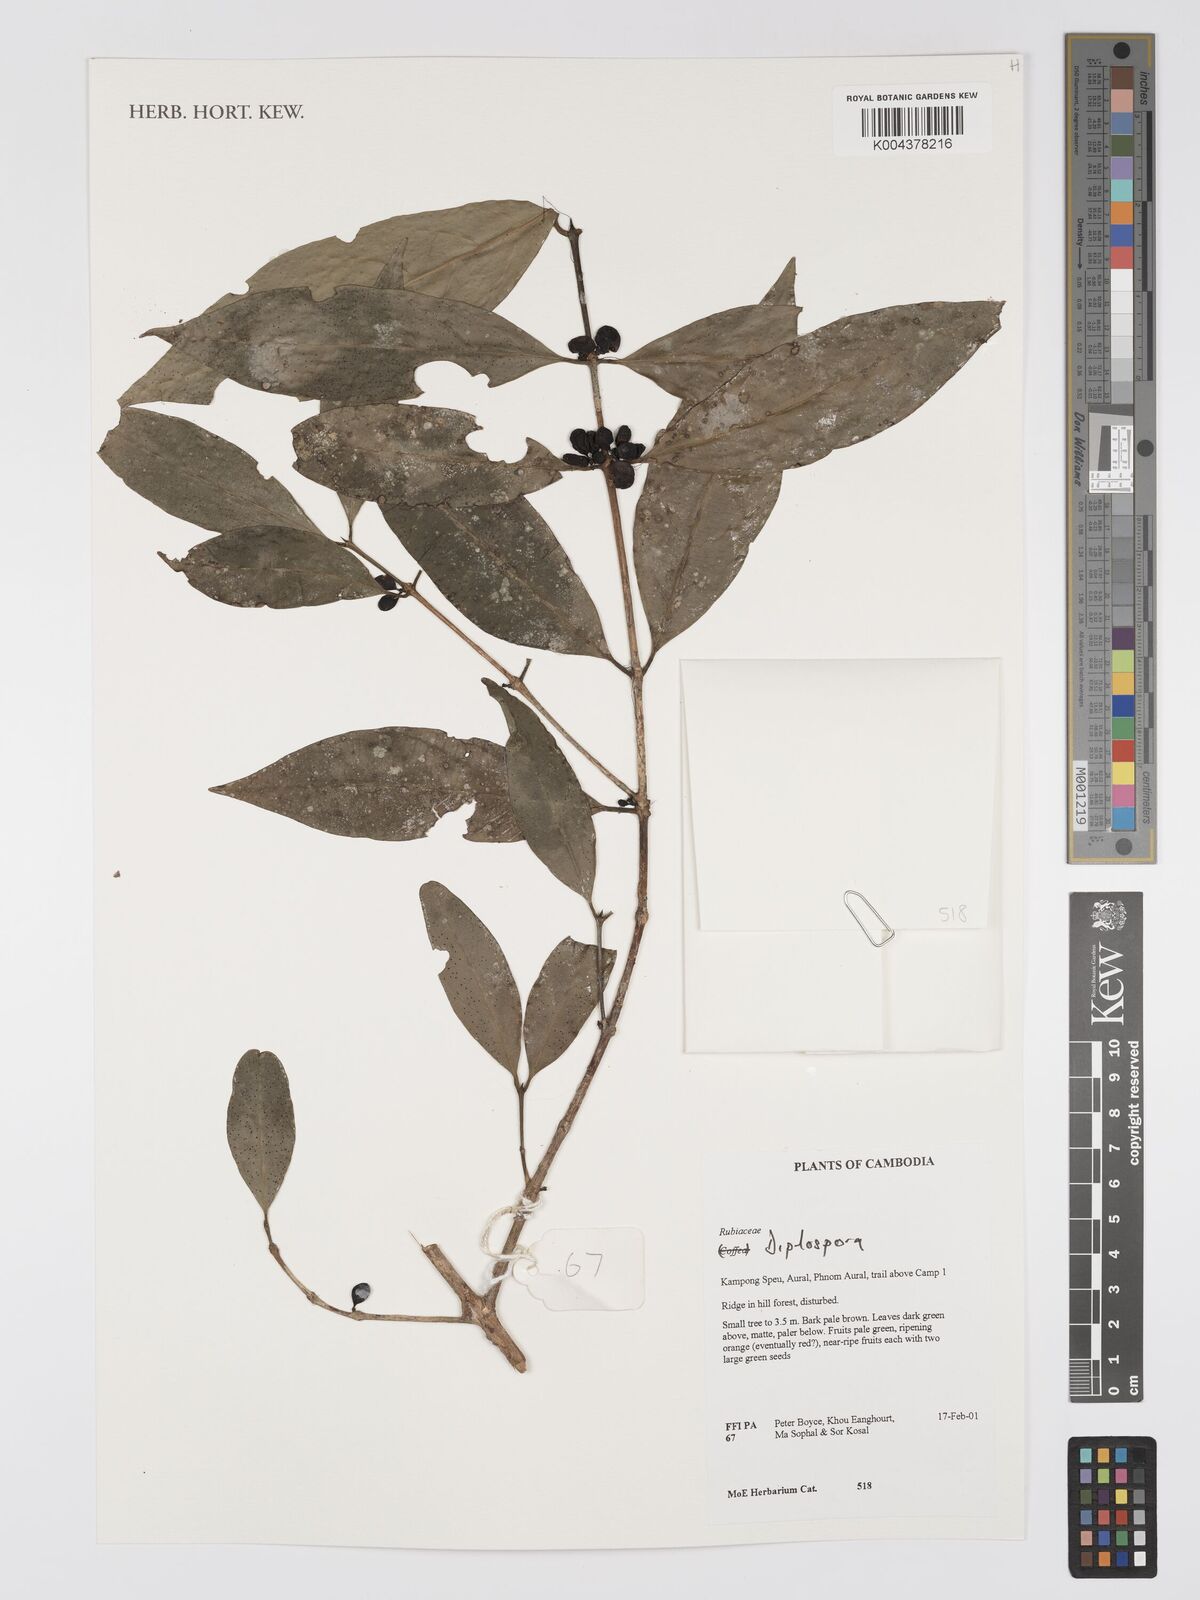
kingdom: Plantae
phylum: Tracheophyta
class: Magnoliopsida
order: Gentianales
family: Rubiaceae
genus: Diplospora
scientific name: Diplospora
